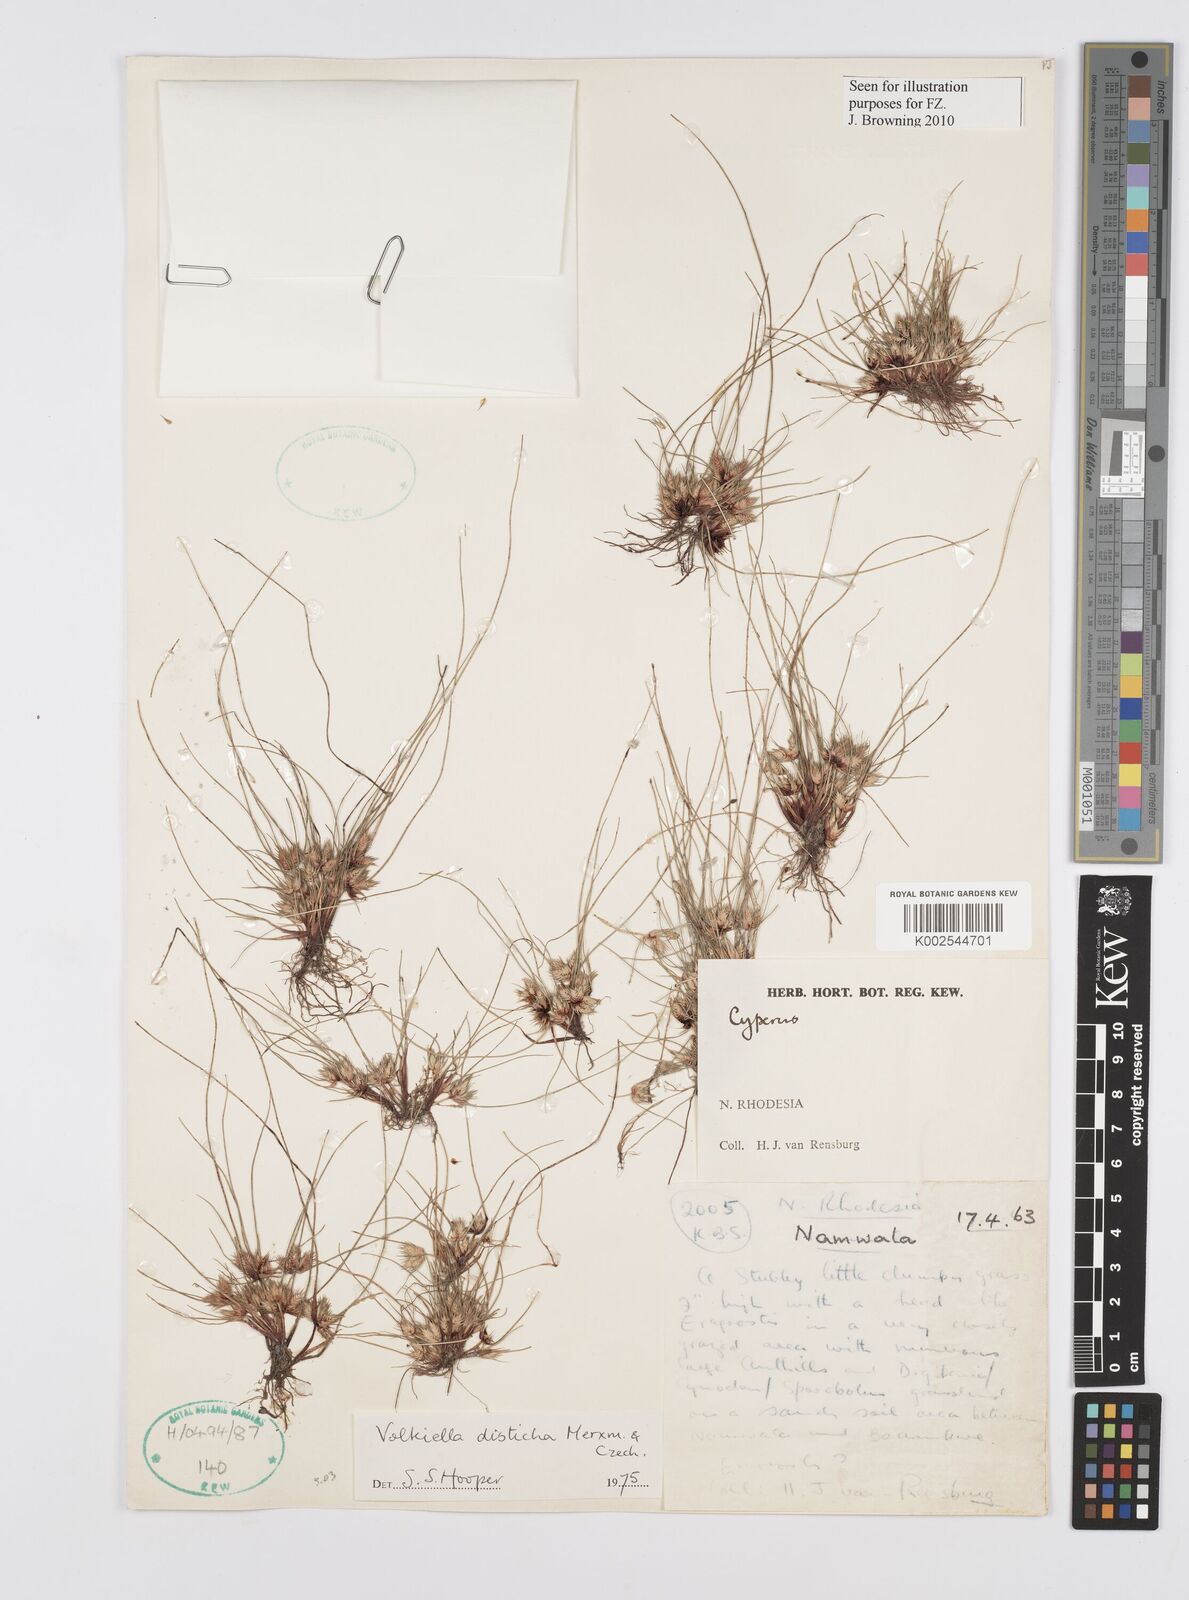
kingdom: Plantae
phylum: Tracheophyta
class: Liliopsida
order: Poales
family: Cyperaceae
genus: Cyperus
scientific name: Cyperus distichus
